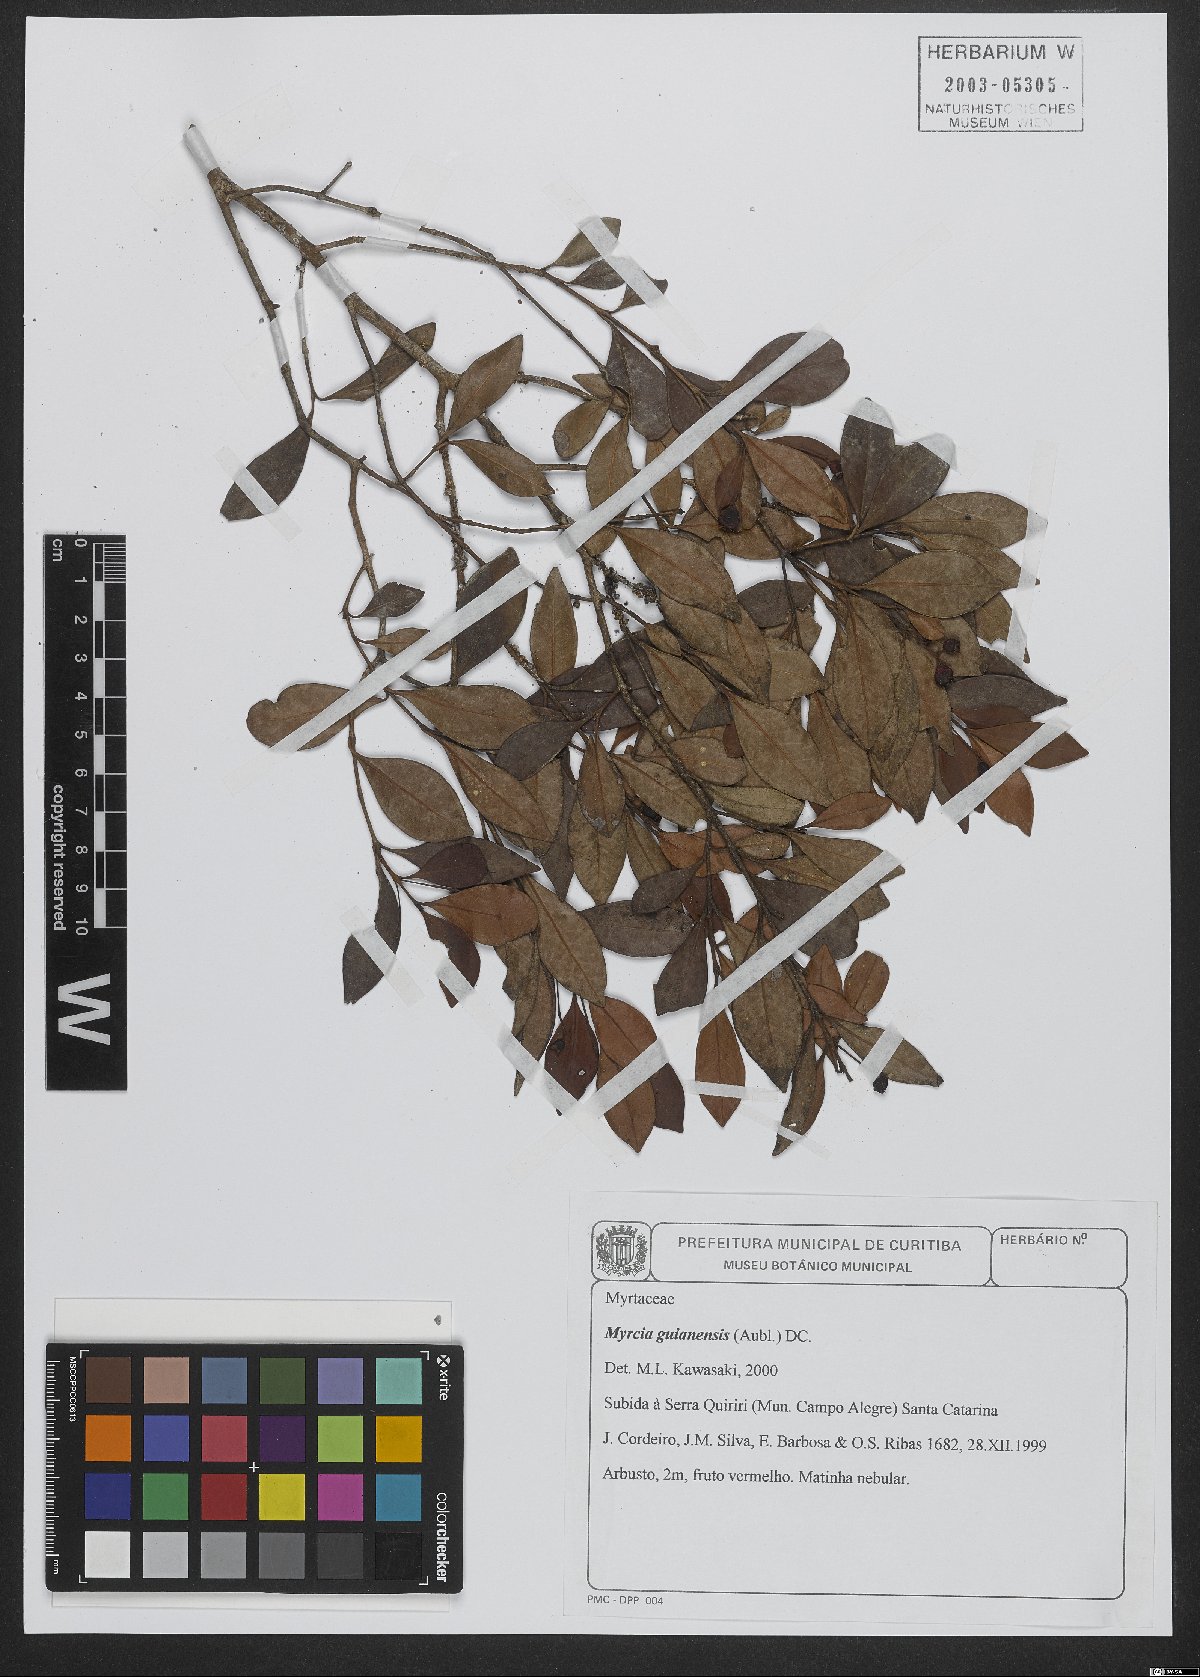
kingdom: Plantae
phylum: Tracheophyta
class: Magnoliopsida
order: Myrtales
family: Myrtaceae
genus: Myrcia
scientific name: Myrcia guianensis
